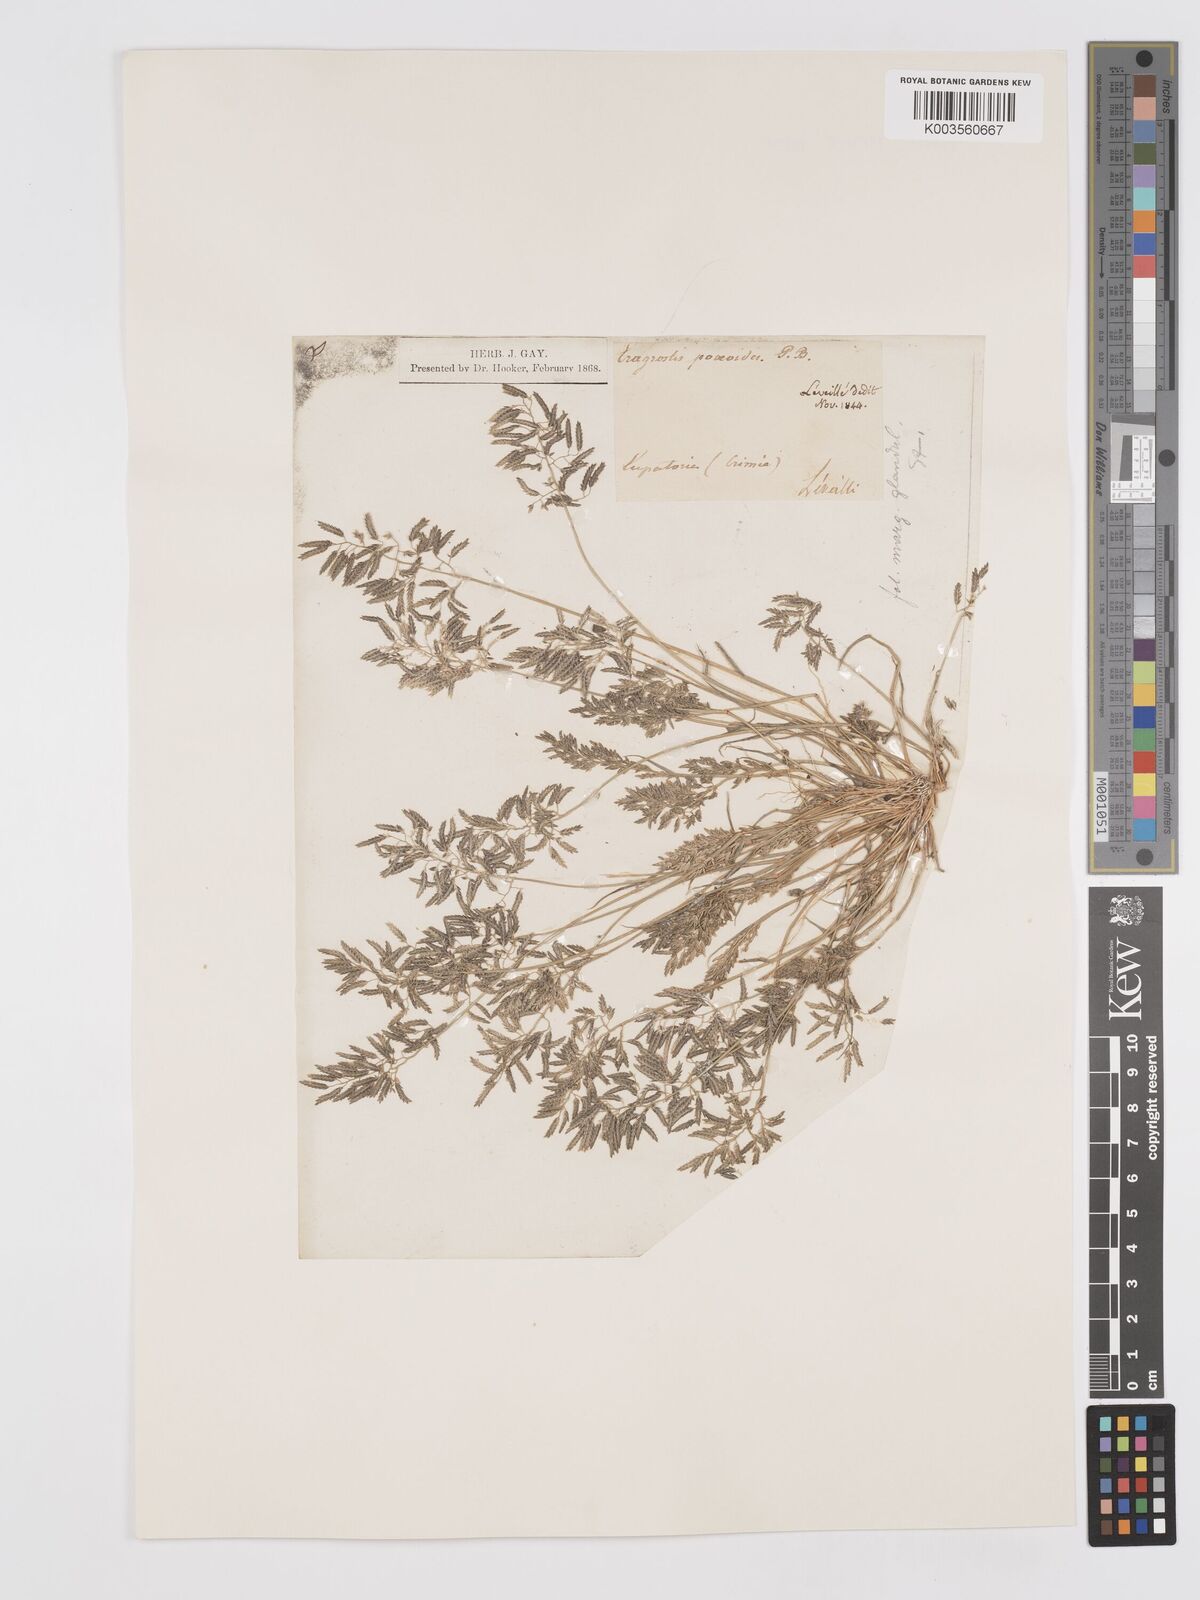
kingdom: Plantae
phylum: Tracheophyta
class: Liliopsida
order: Poales
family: Poaceae
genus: Eragrostis
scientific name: Eragrostis minor
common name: Small love-grass
